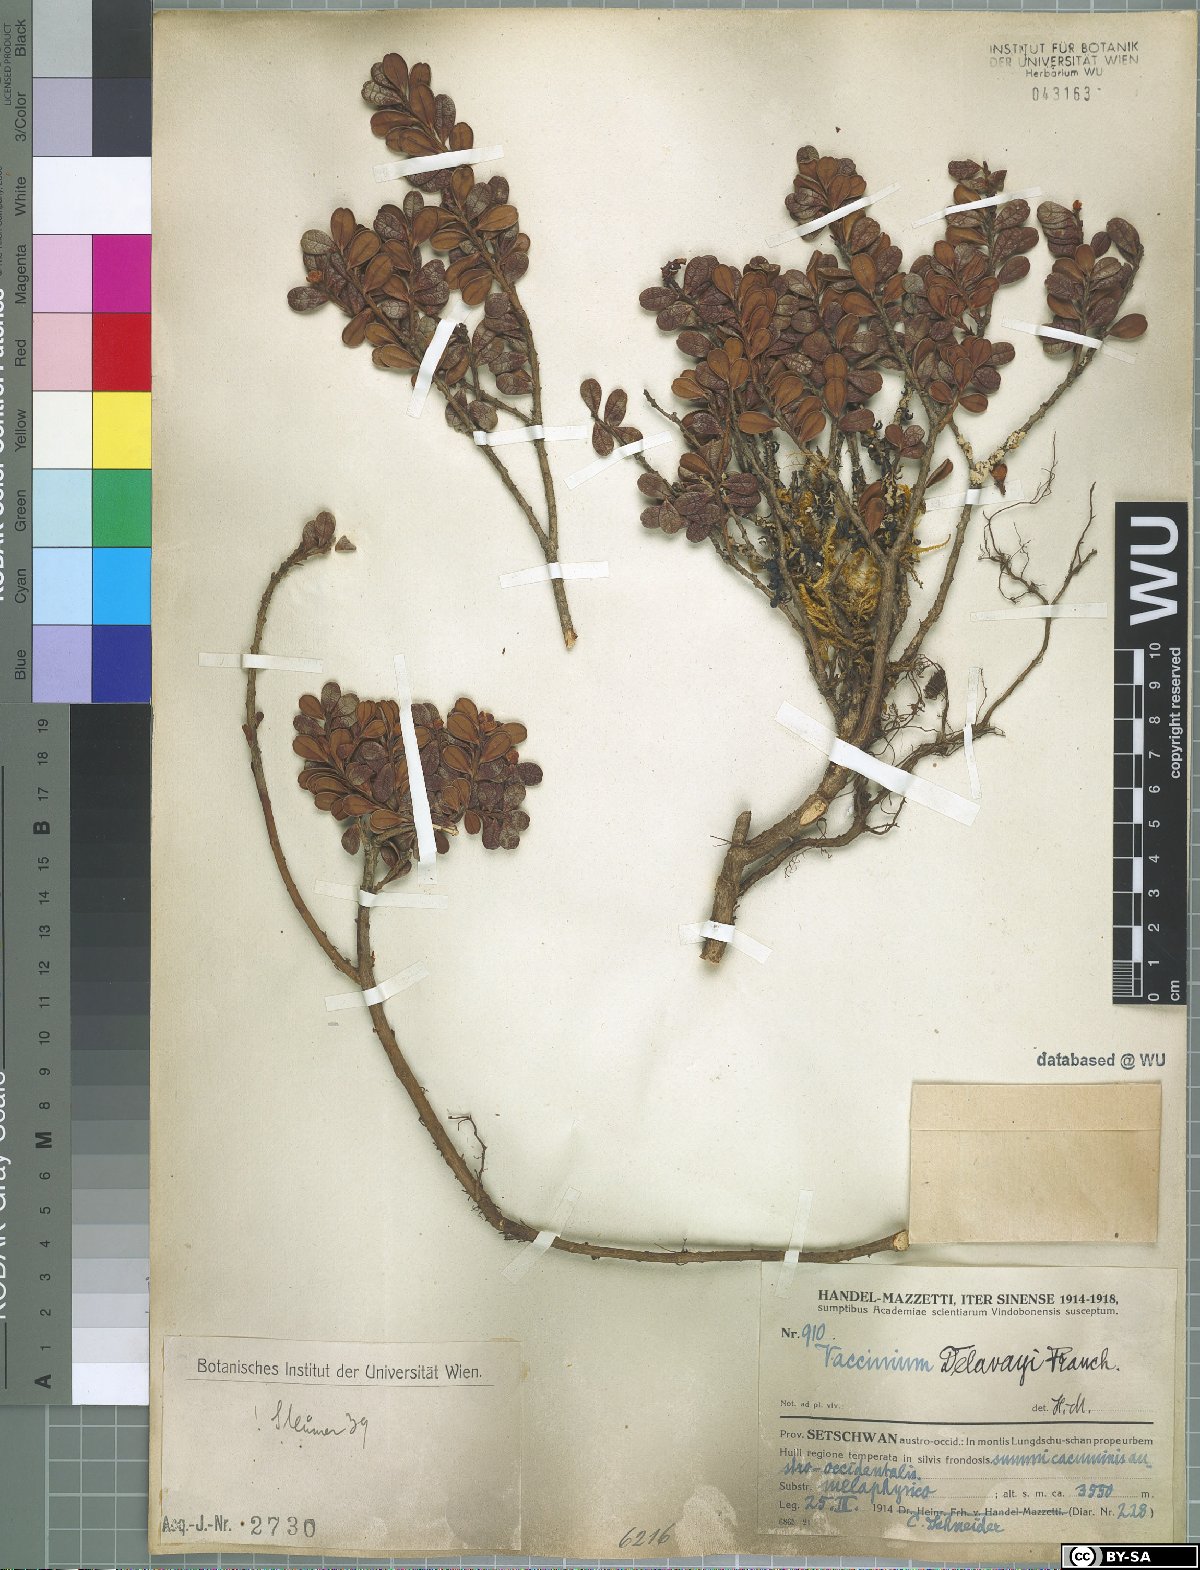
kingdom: Plantae
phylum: Tracheophyta
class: Magnoliopsida
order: Ericales
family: Ericaceae
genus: Vaccinium
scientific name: Vaccinium delavayi
